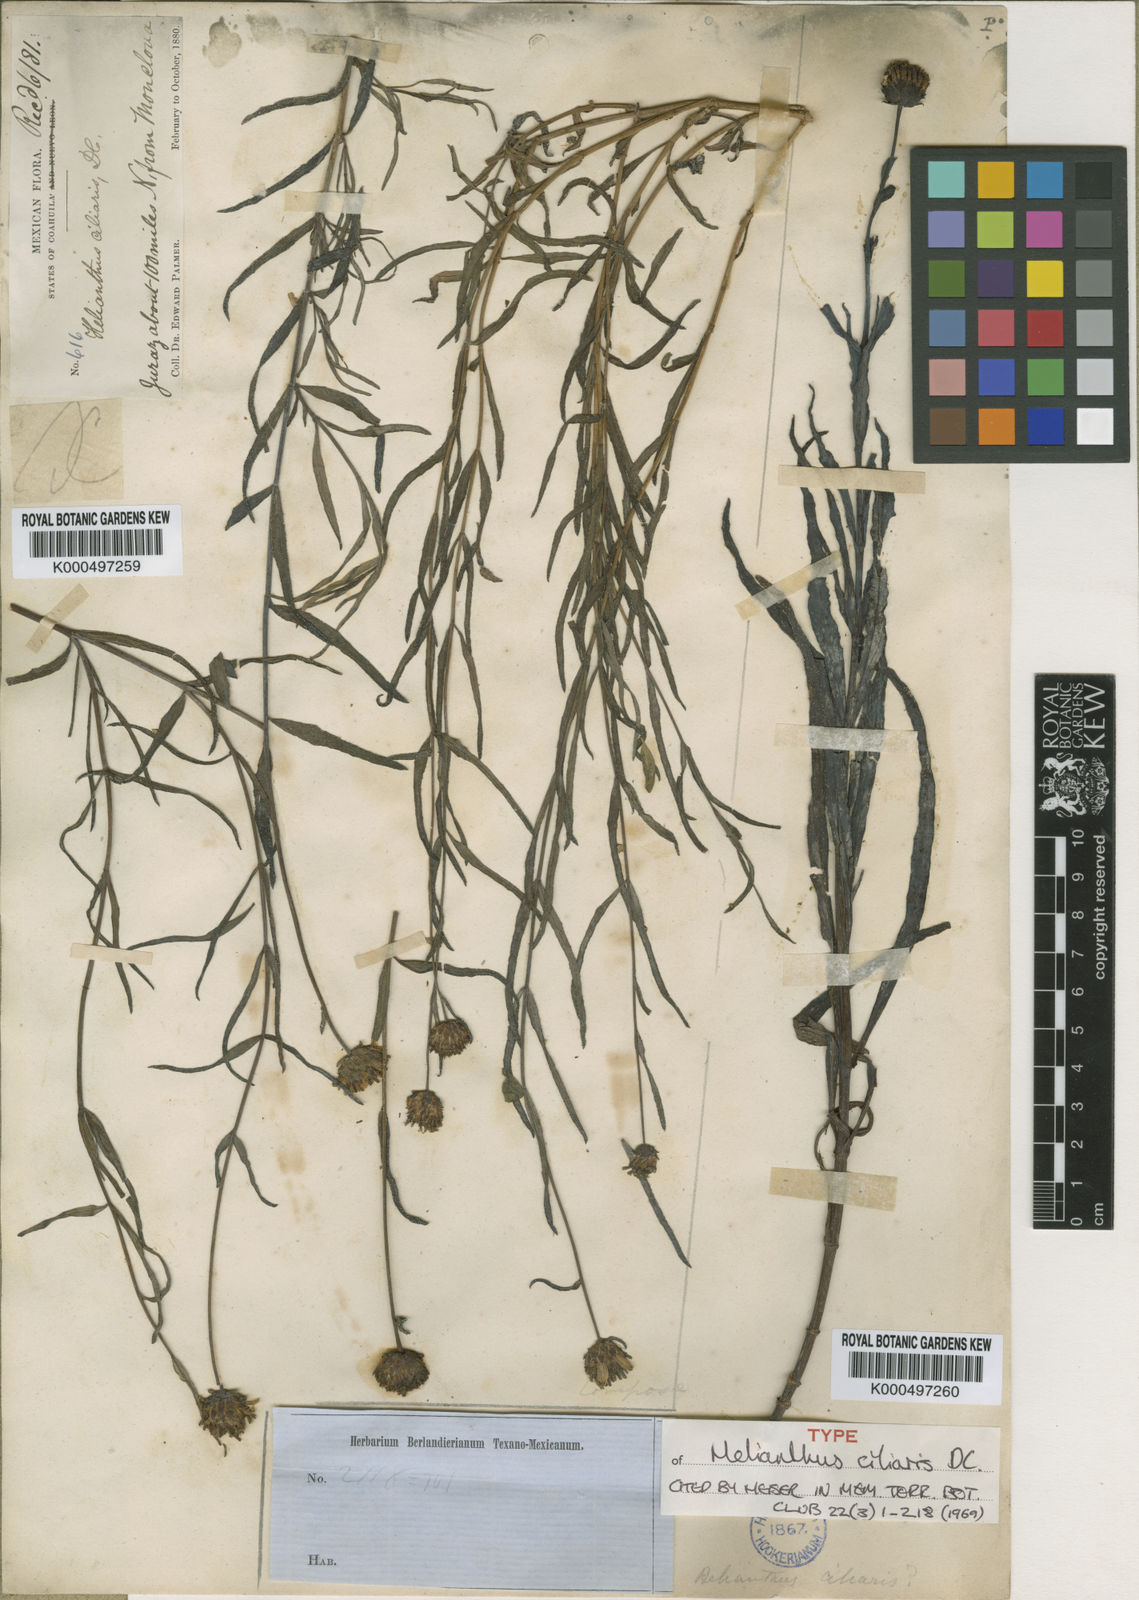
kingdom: Plantae
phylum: Tracheophyta
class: Magnoliopsida
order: Asterales
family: Asteraceae
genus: Helianthus
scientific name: Helianthus ciliaris
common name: Texas blueweed
